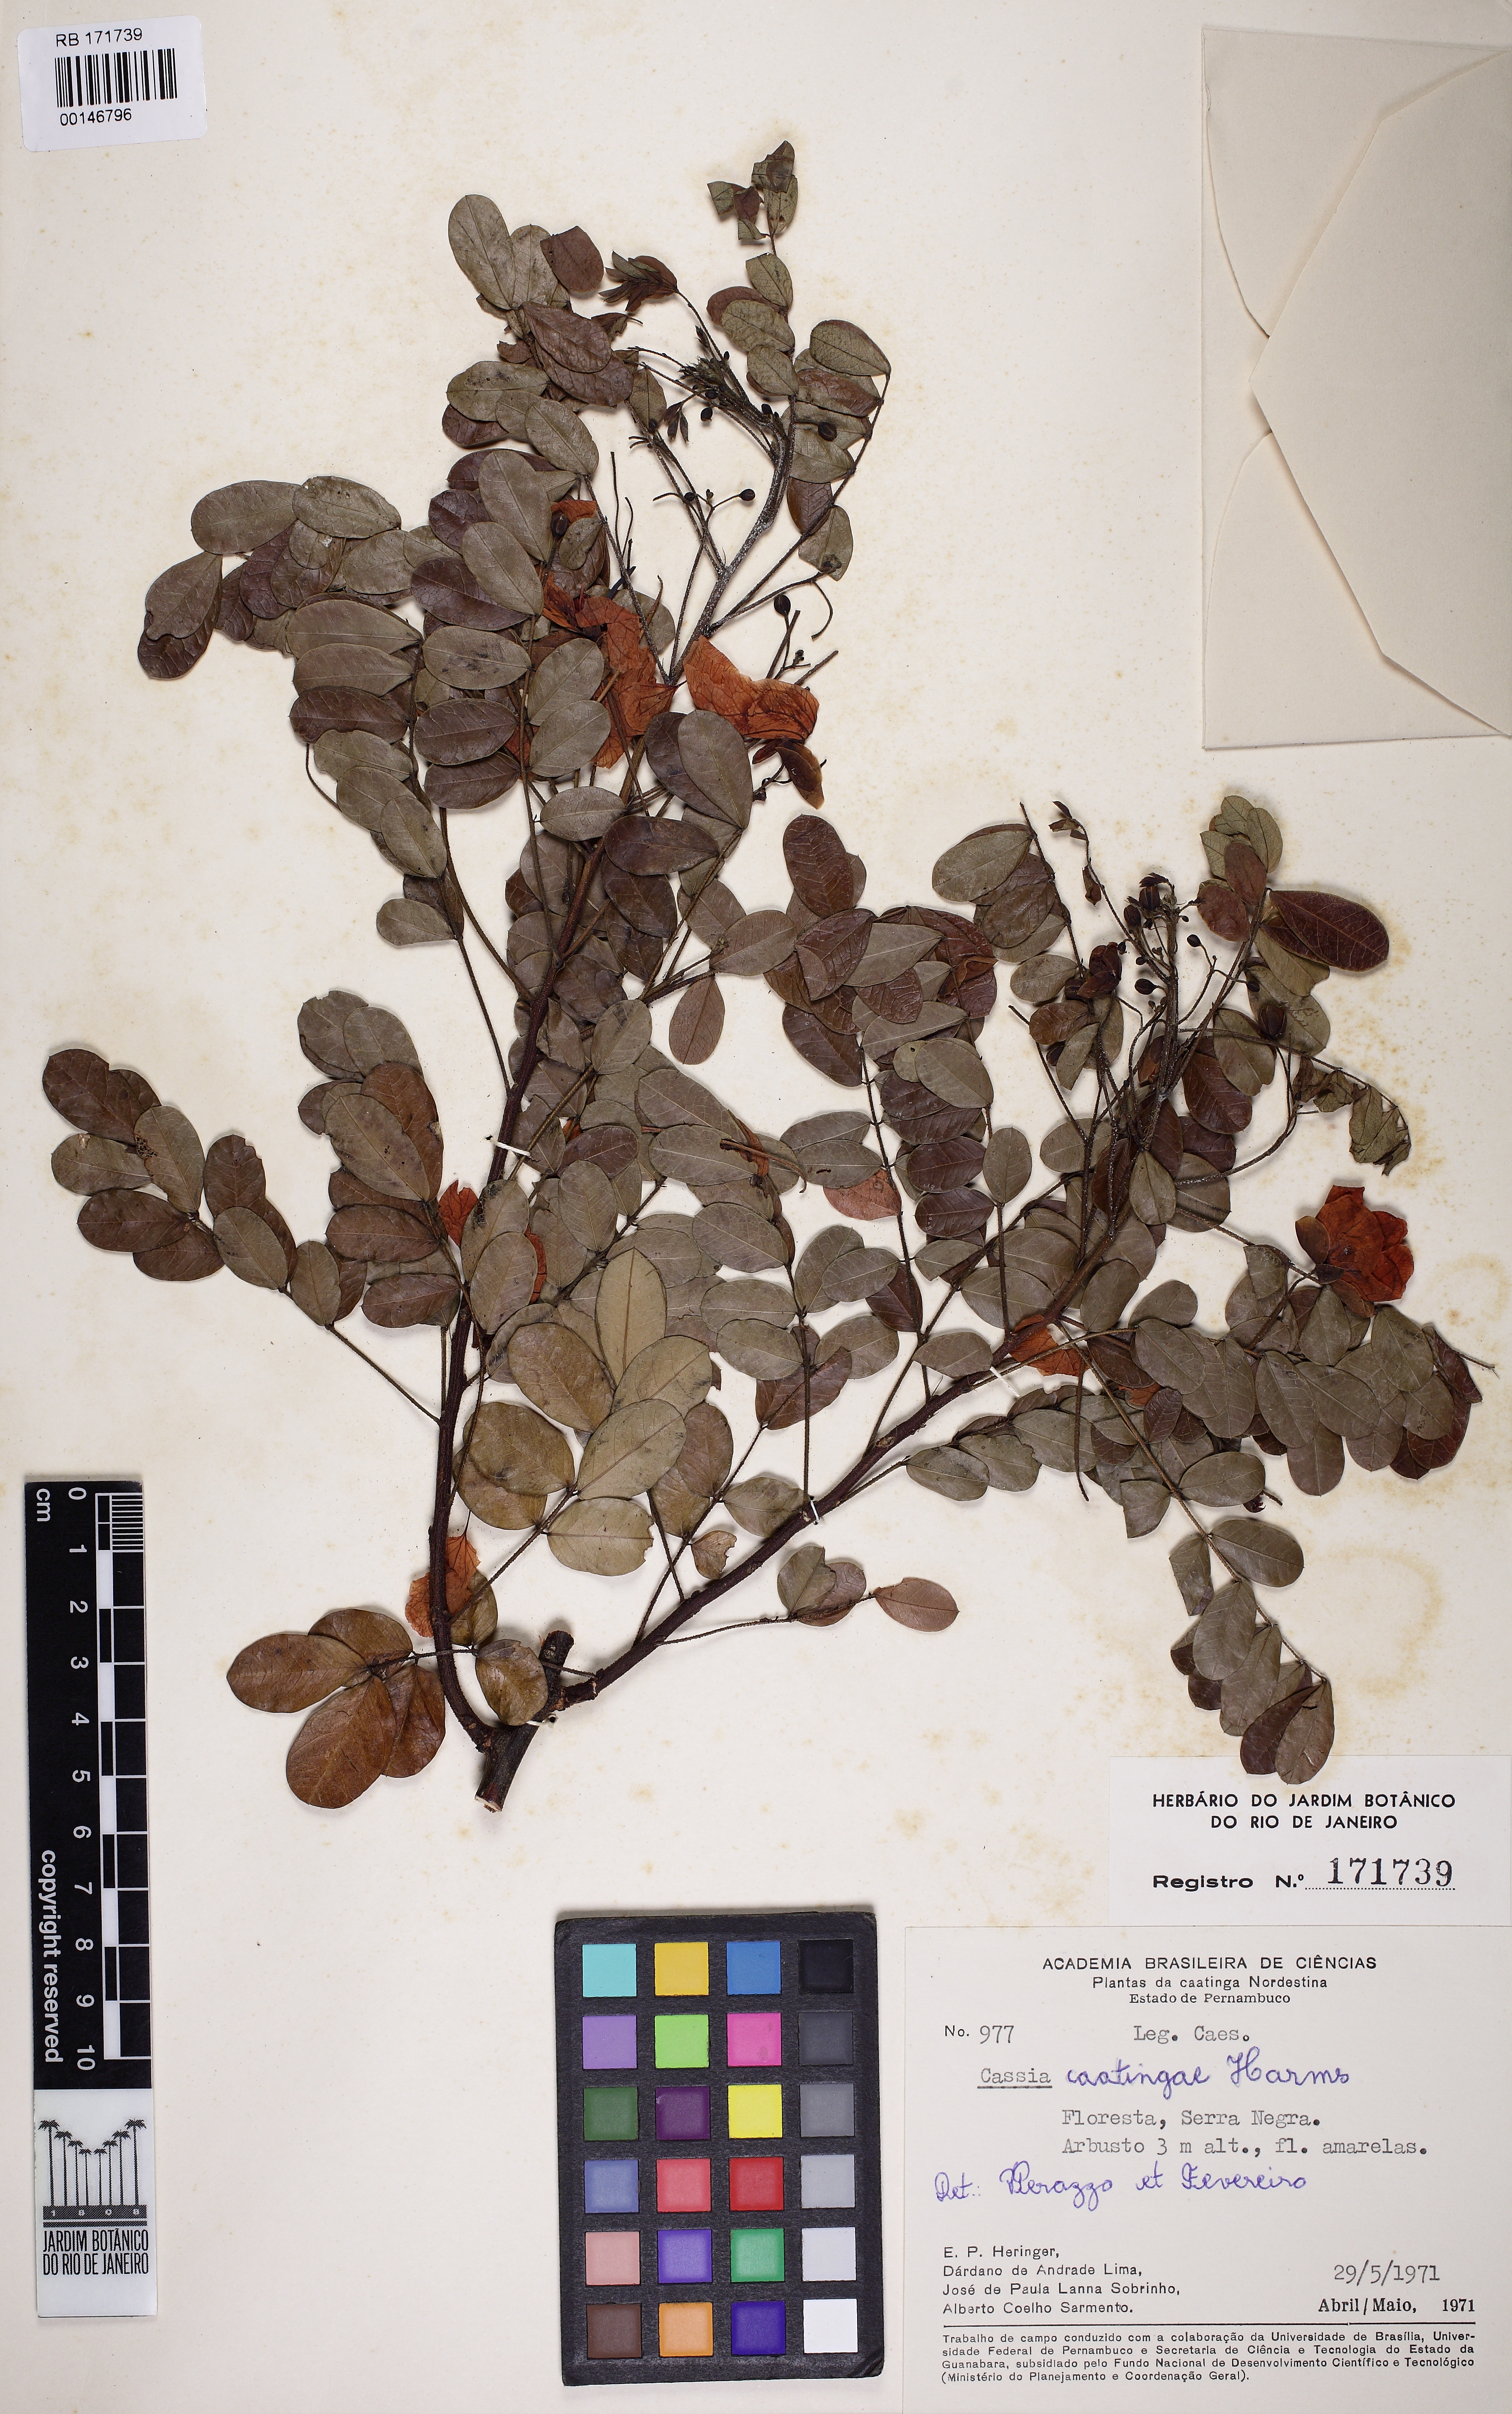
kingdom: Plantae
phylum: Tracheophyta
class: Magnoliopsida
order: Fabales
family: Fabaceae
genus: Senna
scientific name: Senna trachypus
